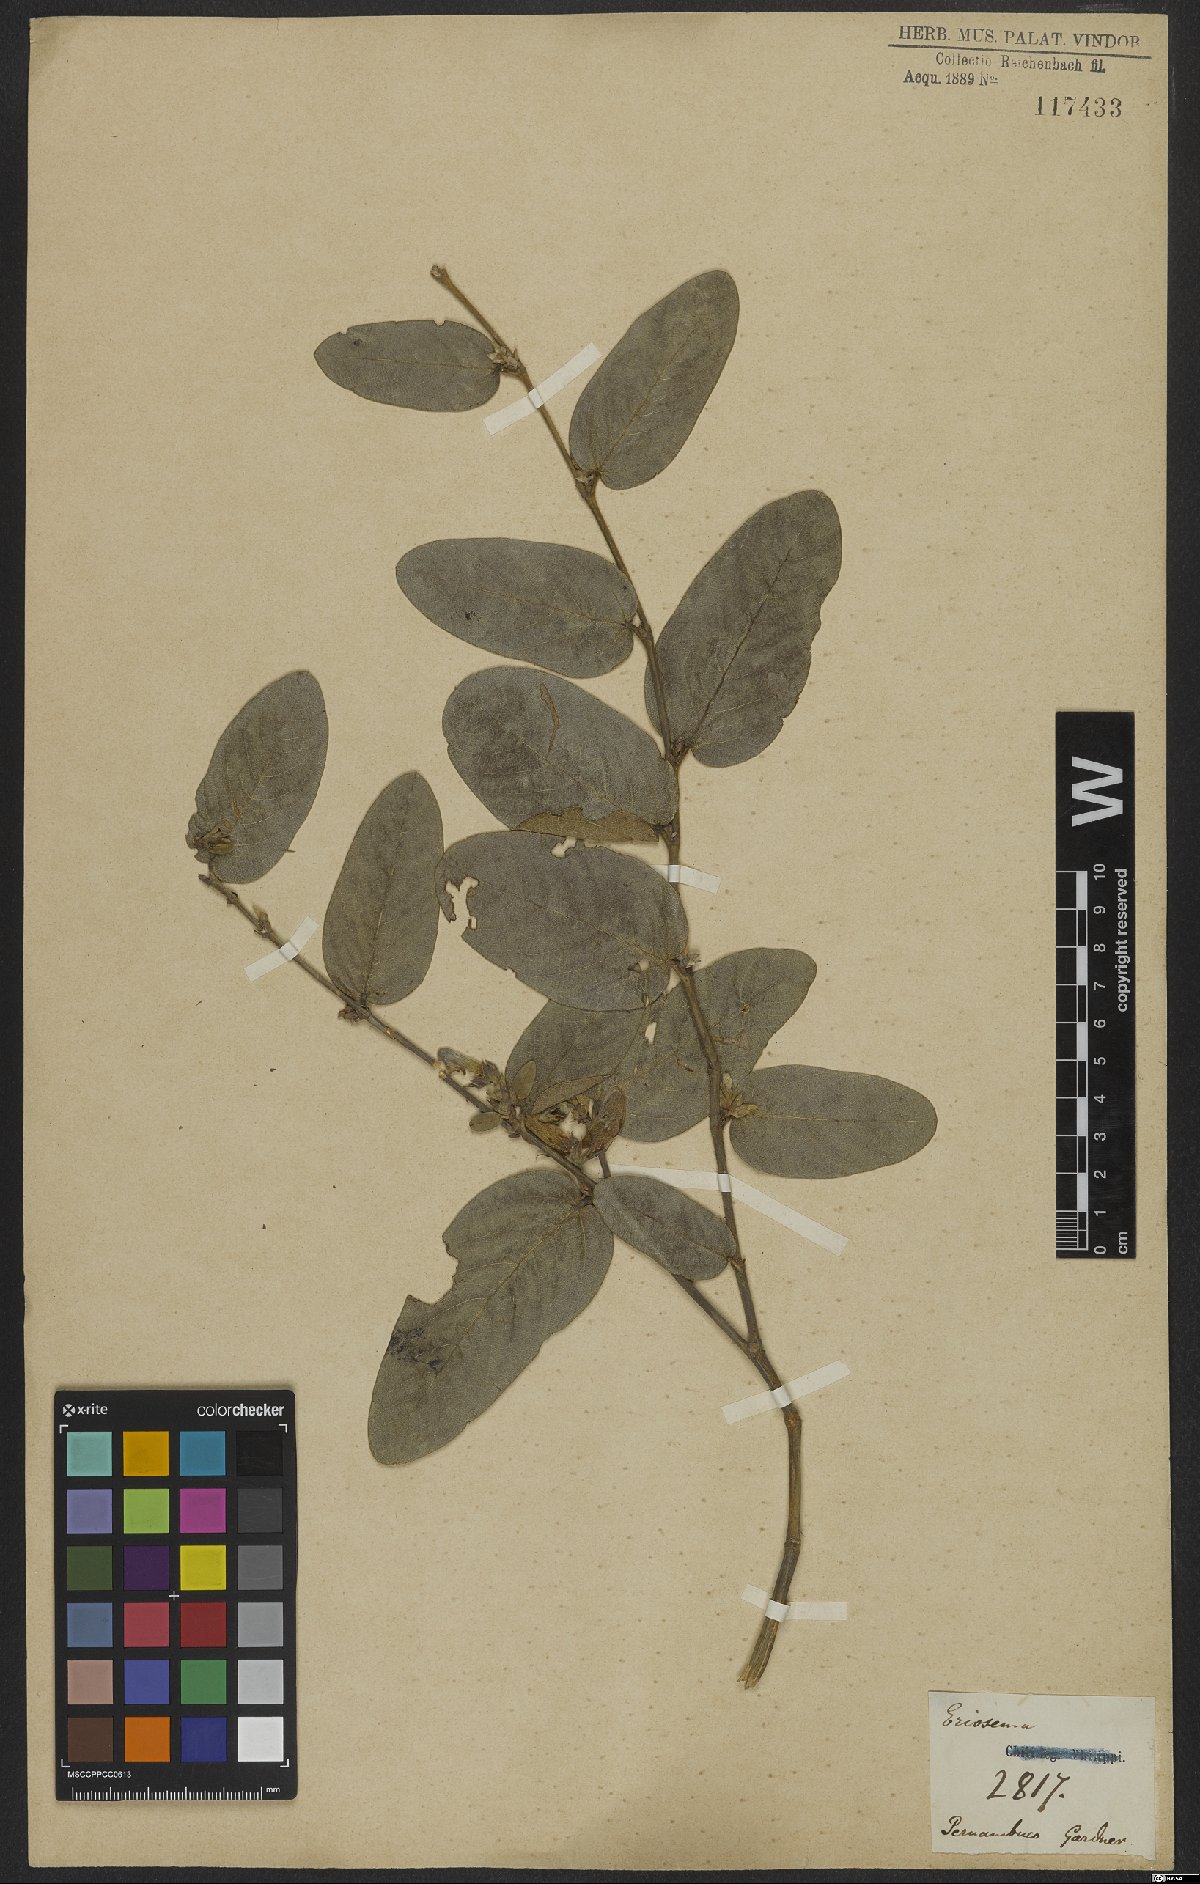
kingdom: Plantae
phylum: Tracheophyta
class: Magnoliopsida
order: Fabales
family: Fabaceae
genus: Eriosema
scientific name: Eriosema venulosum
